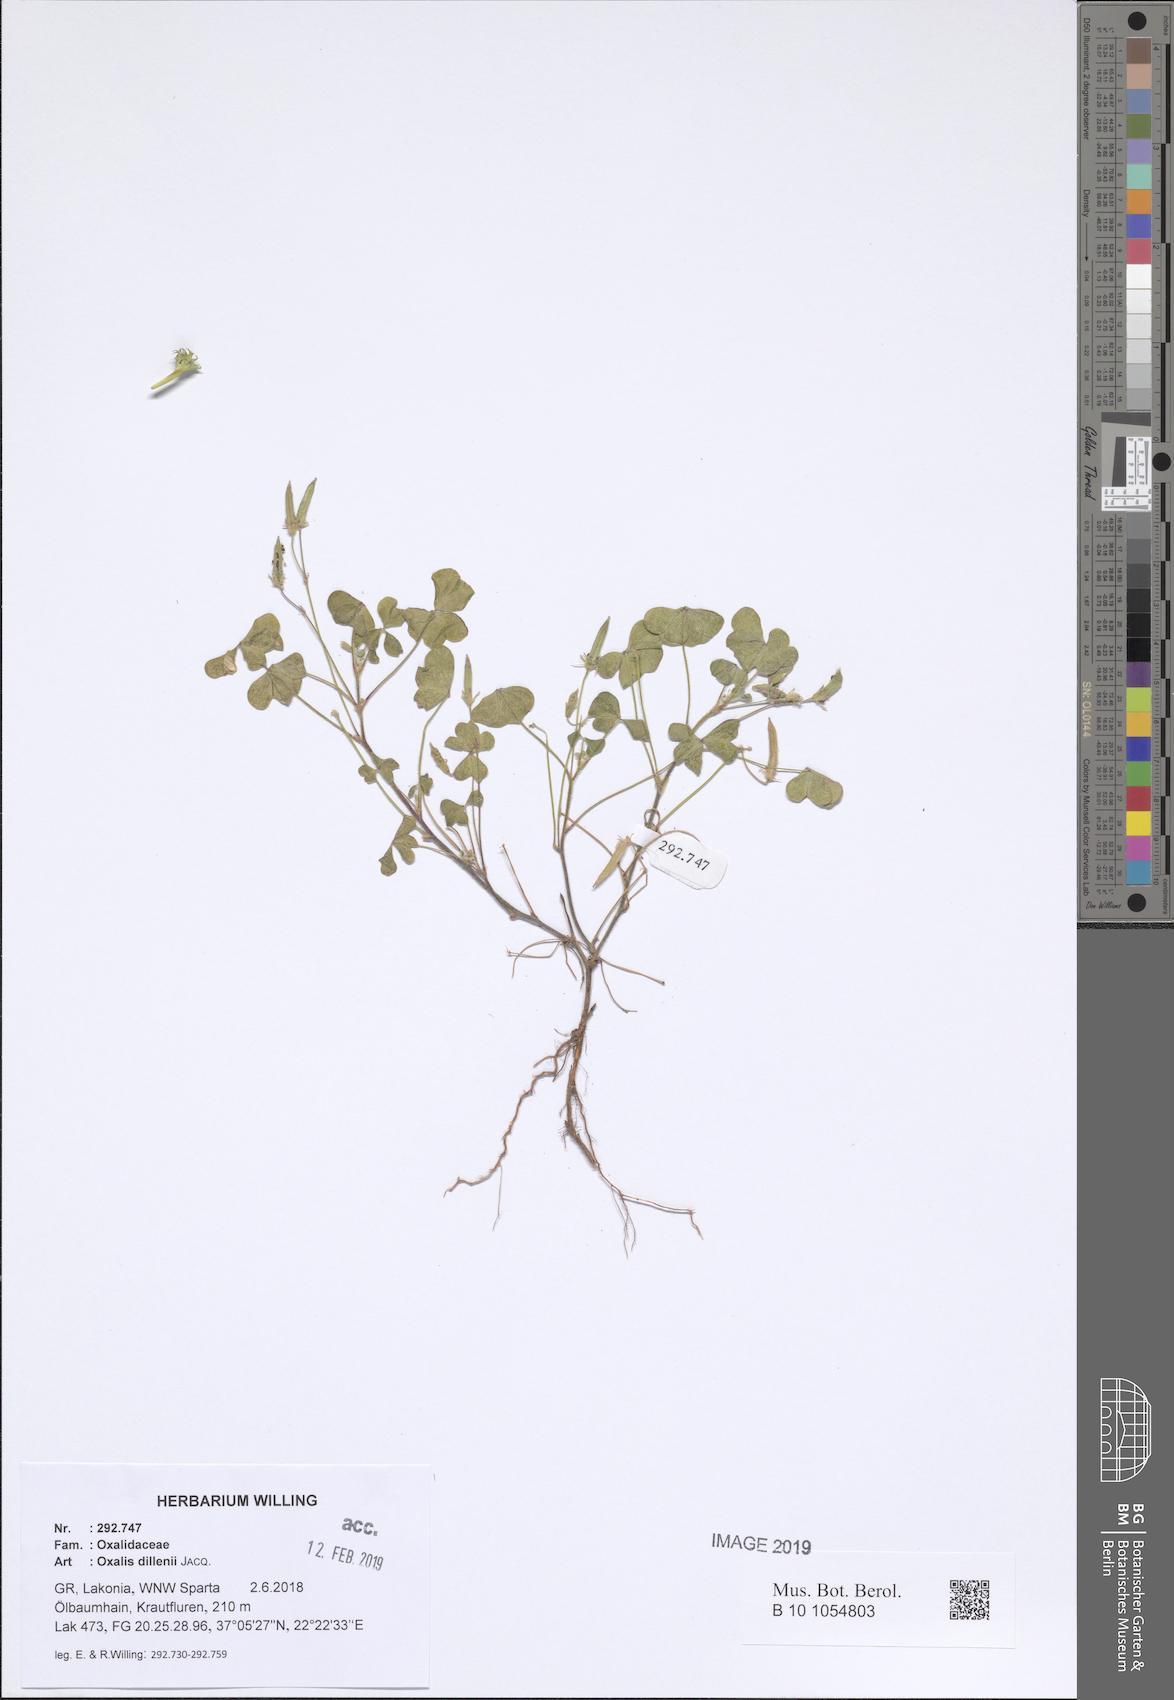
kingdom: Plantae
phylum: Tracheophyta
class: Magnoliopsida
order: Oxalidales
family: Oxalidaceae
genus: Oxalis
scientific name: Oxalis dillenii
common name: Sussex yellow-sorrel
